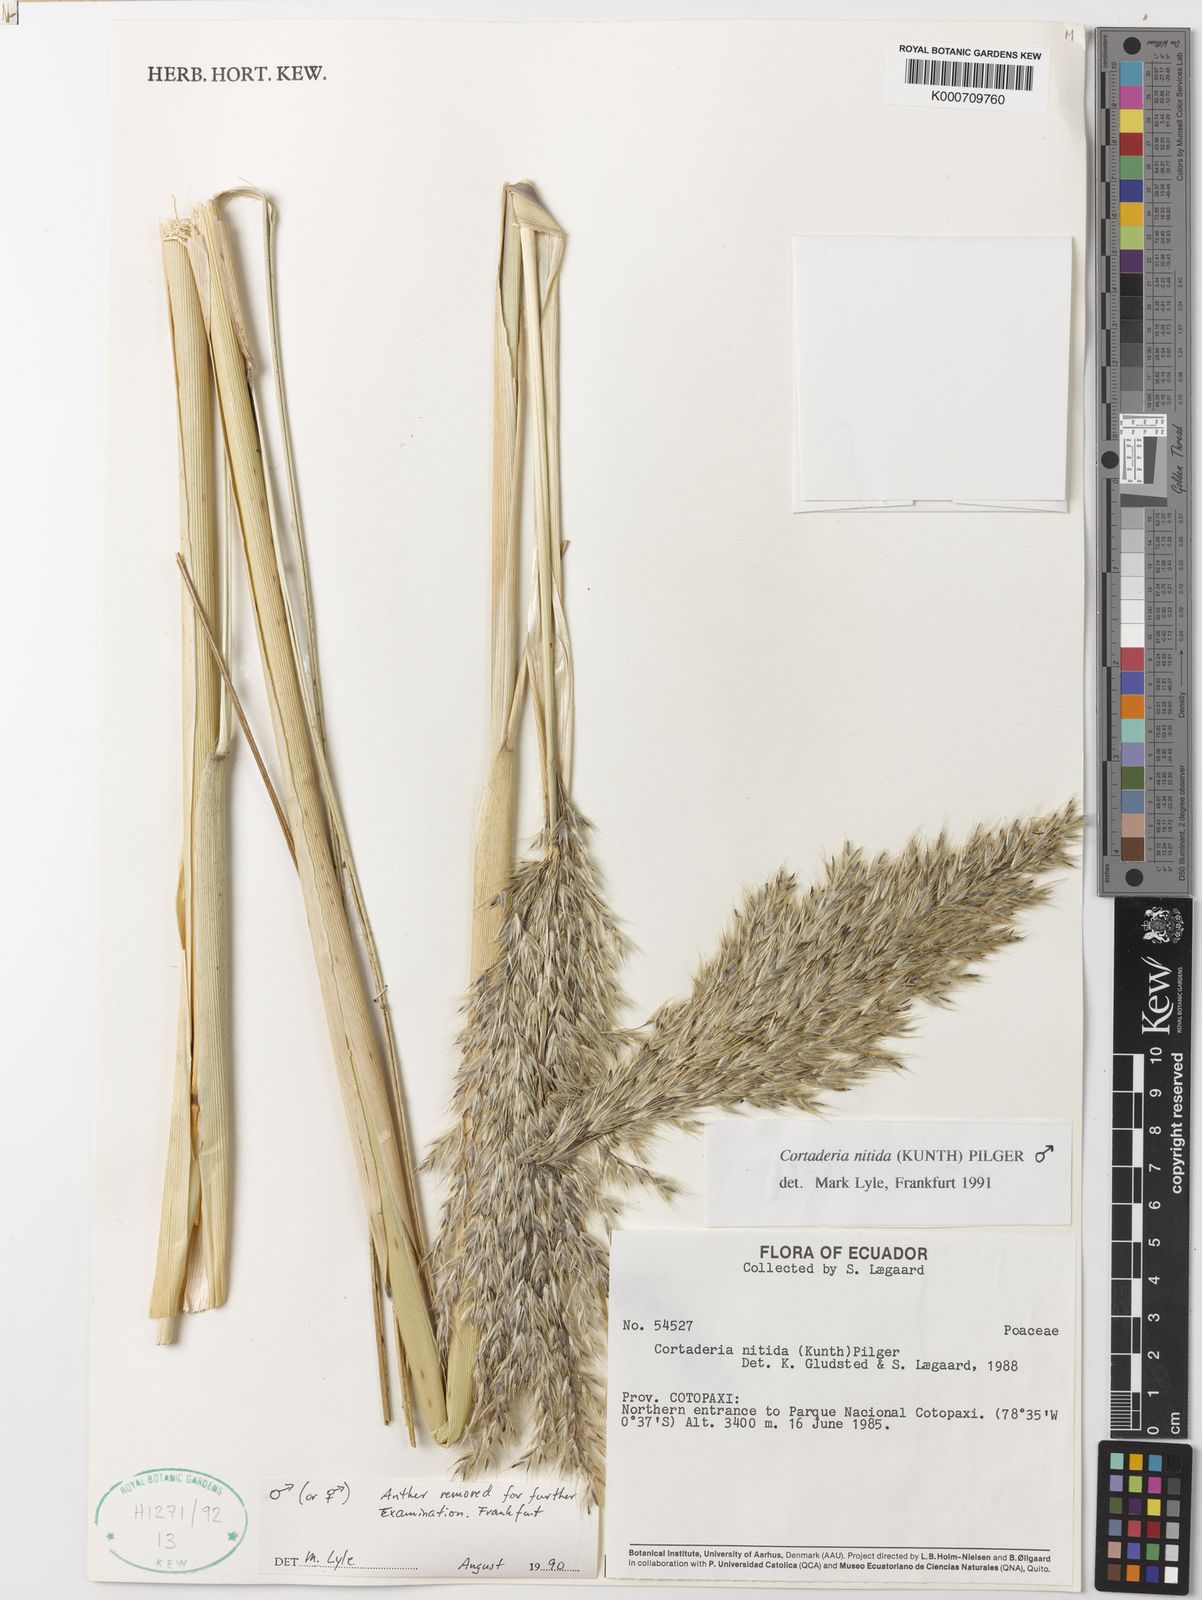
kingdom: Plantae
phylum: Tracheophyta
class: Liliopsida
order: Poales
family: Poaceae
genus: Cortaderia
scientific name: Cortaderia nitida
